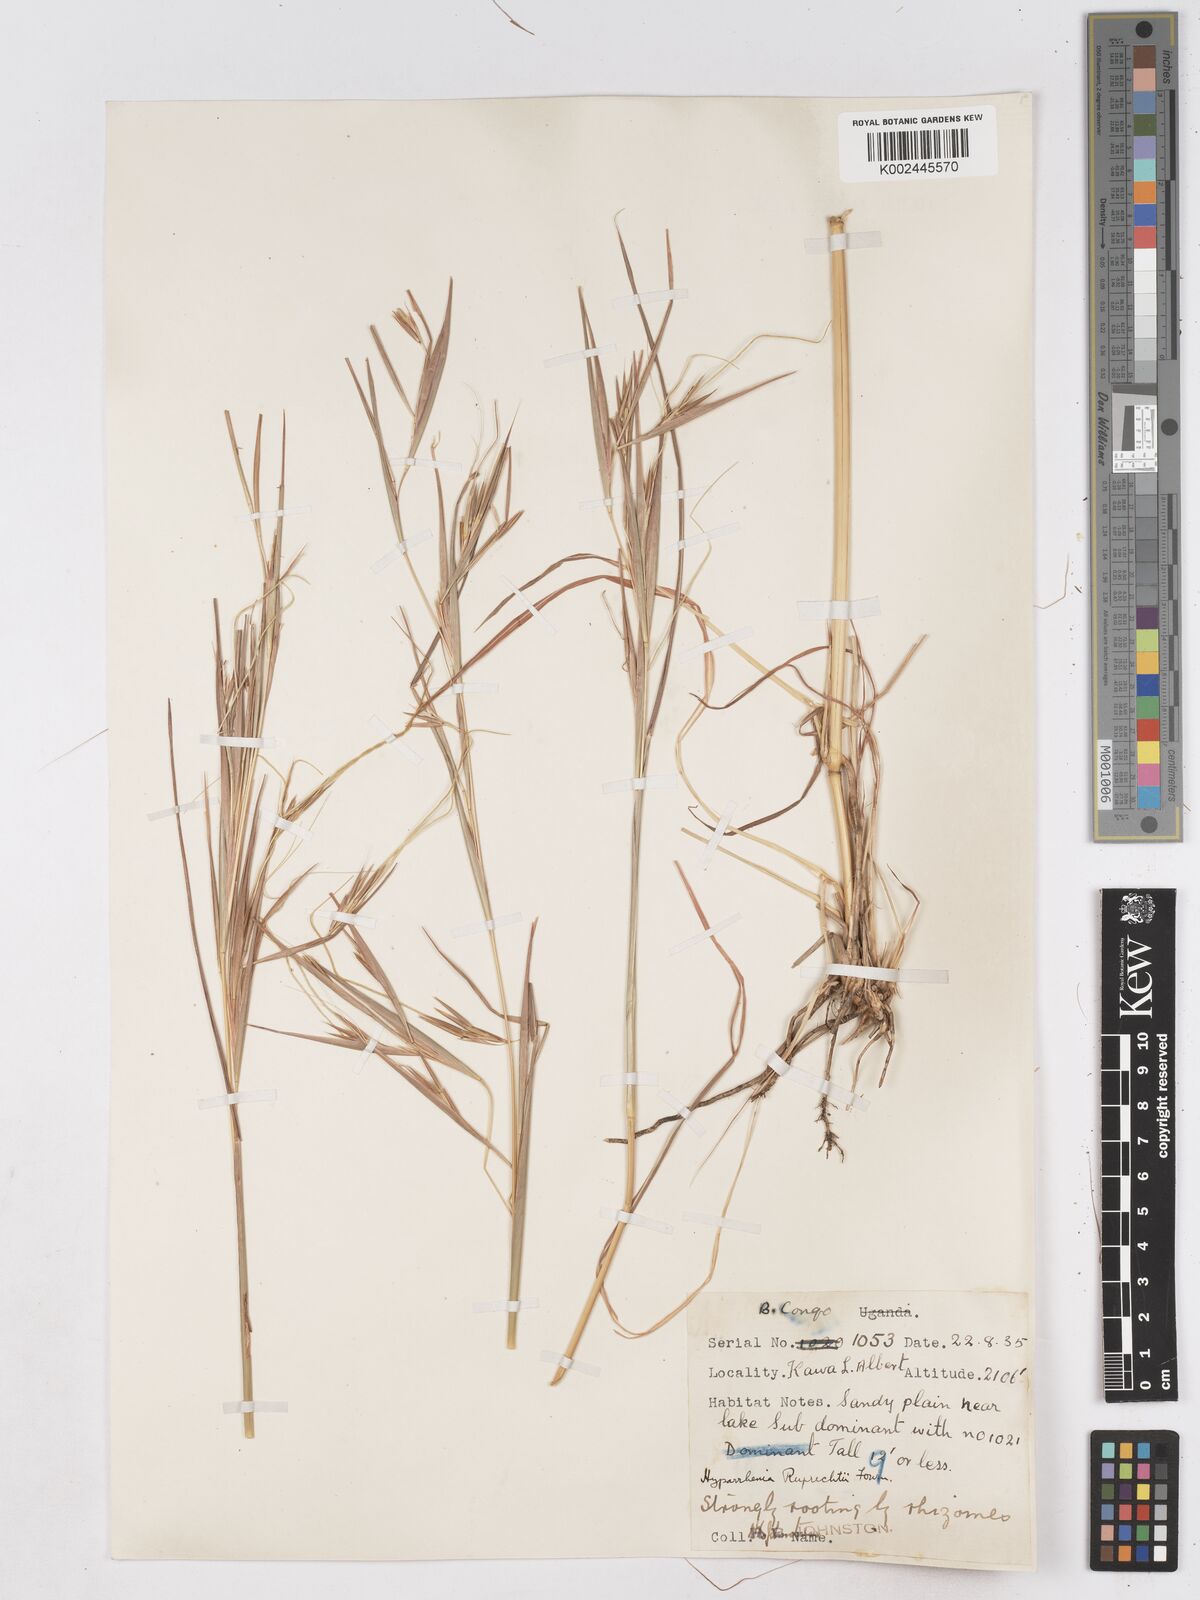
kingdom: Plantae
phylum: Tracheophyta
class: Liliopsida
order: Poales
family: Poaceae
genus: Hyperthelia
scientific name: Hyperthelia dissoluta
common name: Yellow thatching grass
